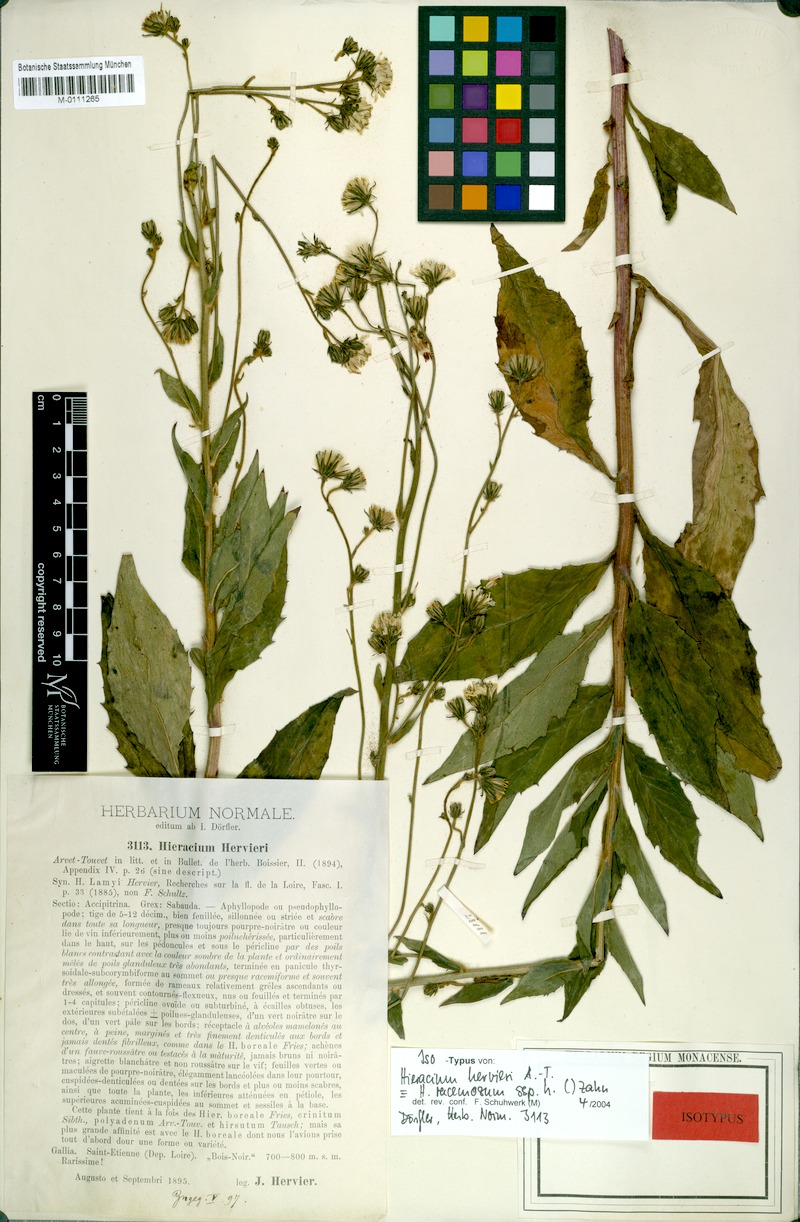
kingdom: Plantae
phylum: Tracheophyta
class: Magnoliopsida
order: Asterales
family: Asteraceae
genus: Hieracium
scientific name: Hieracium racemosum
